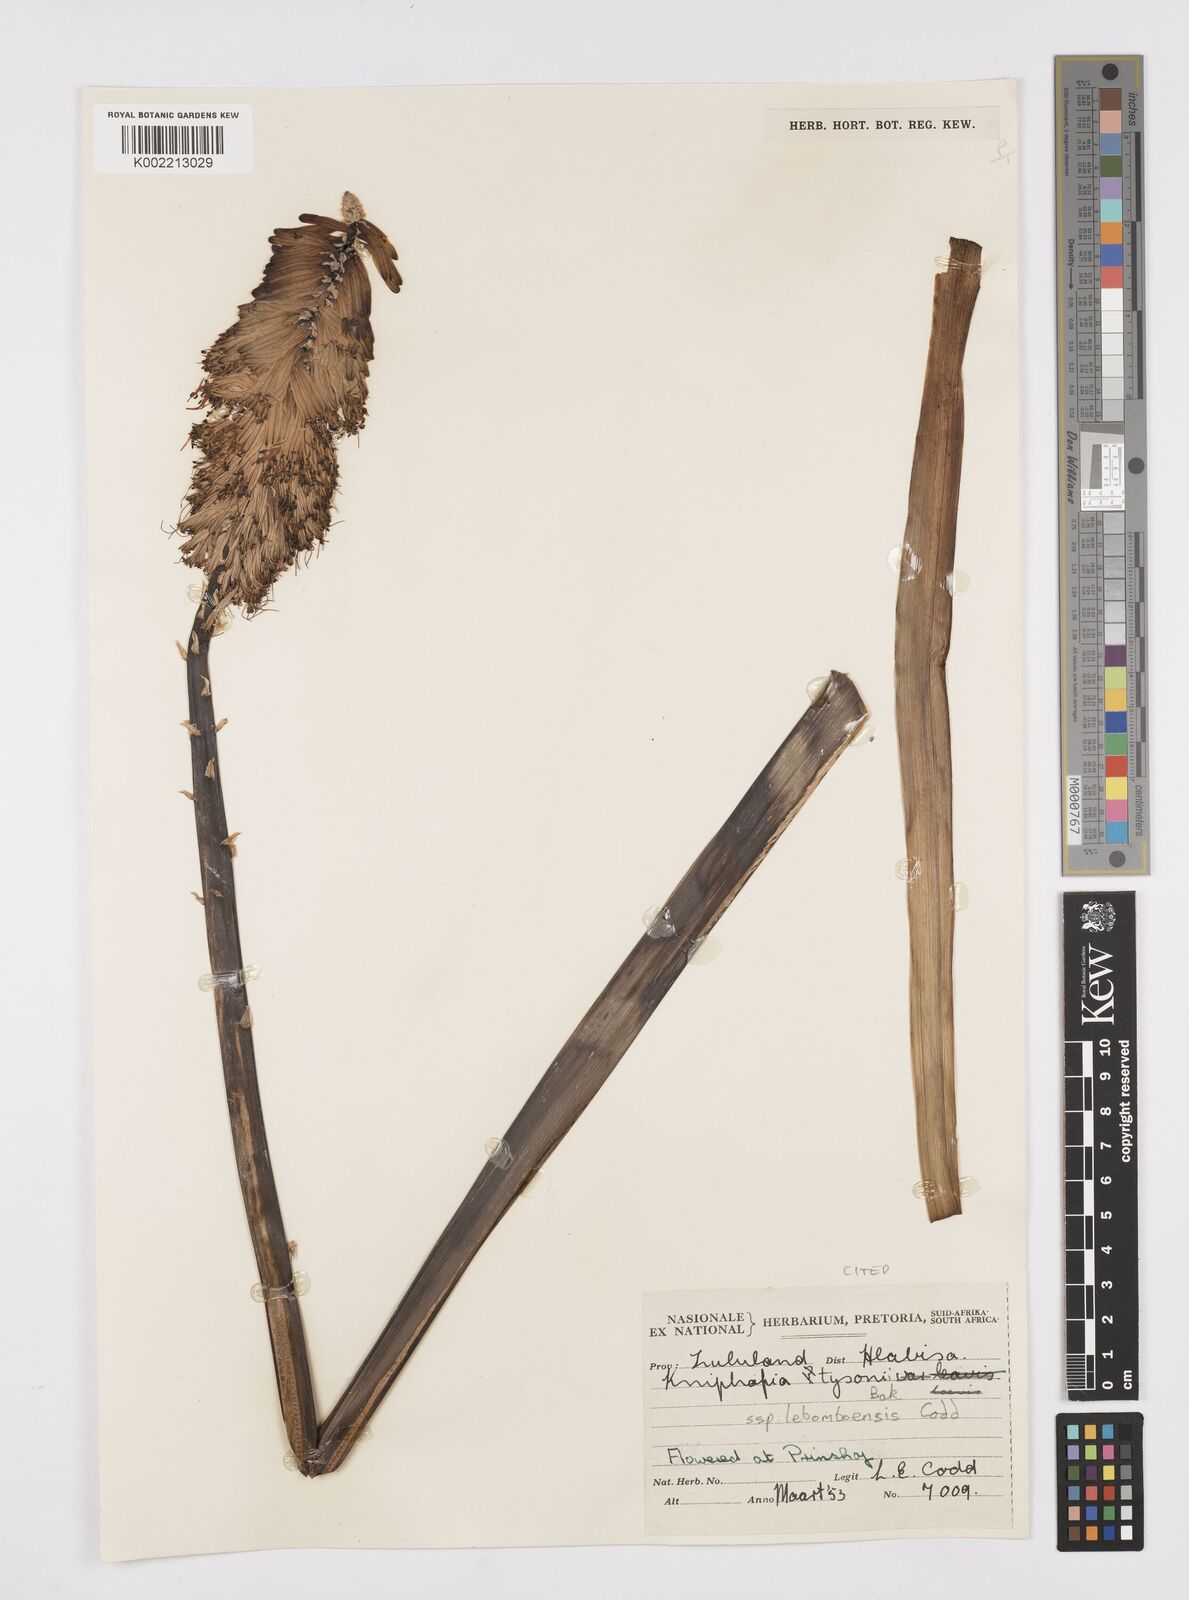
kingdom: Plantae
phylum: Tracheophyta
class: Liliopsida
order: Asparagales
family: Asphodelaceae
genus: Kniphofia
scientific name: Kniphofia tysonii
